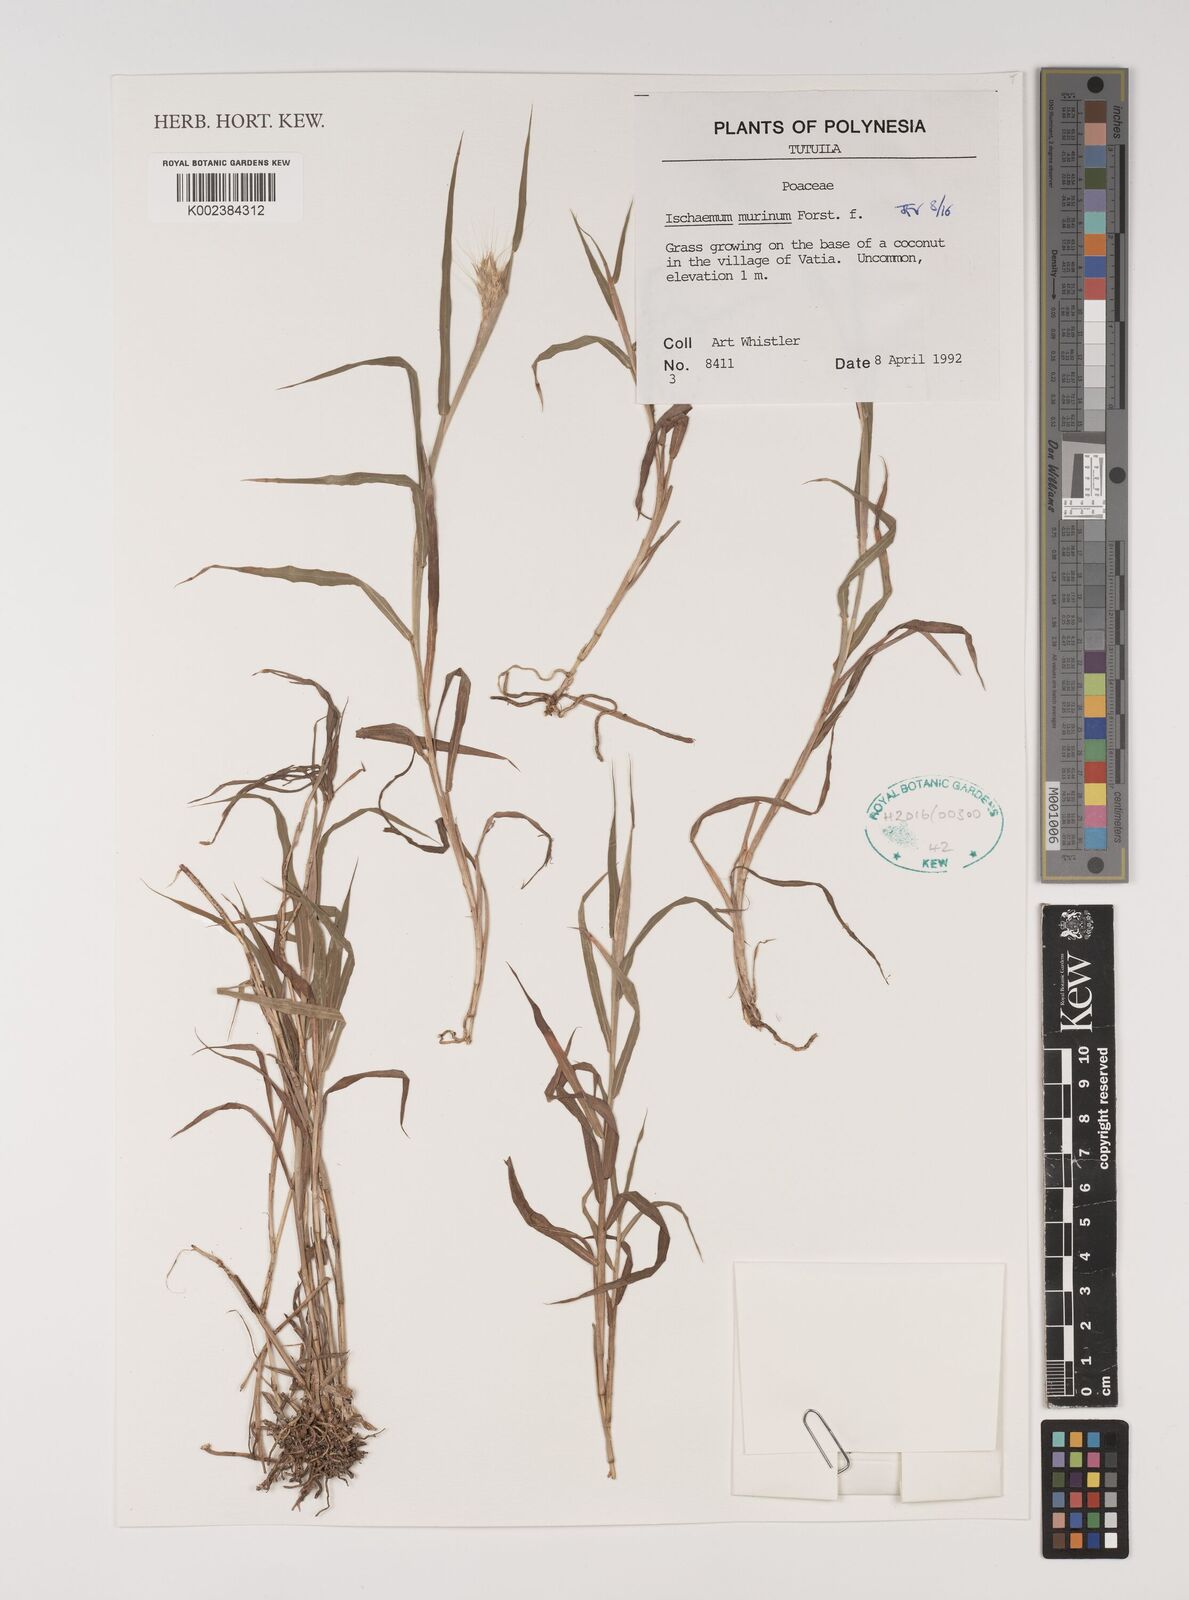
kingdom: Plantae
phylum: Tracheophyta
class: Liliopsida
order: Poales
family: Poaceae
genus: Ischaemum
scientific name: Ischaemum murinum
